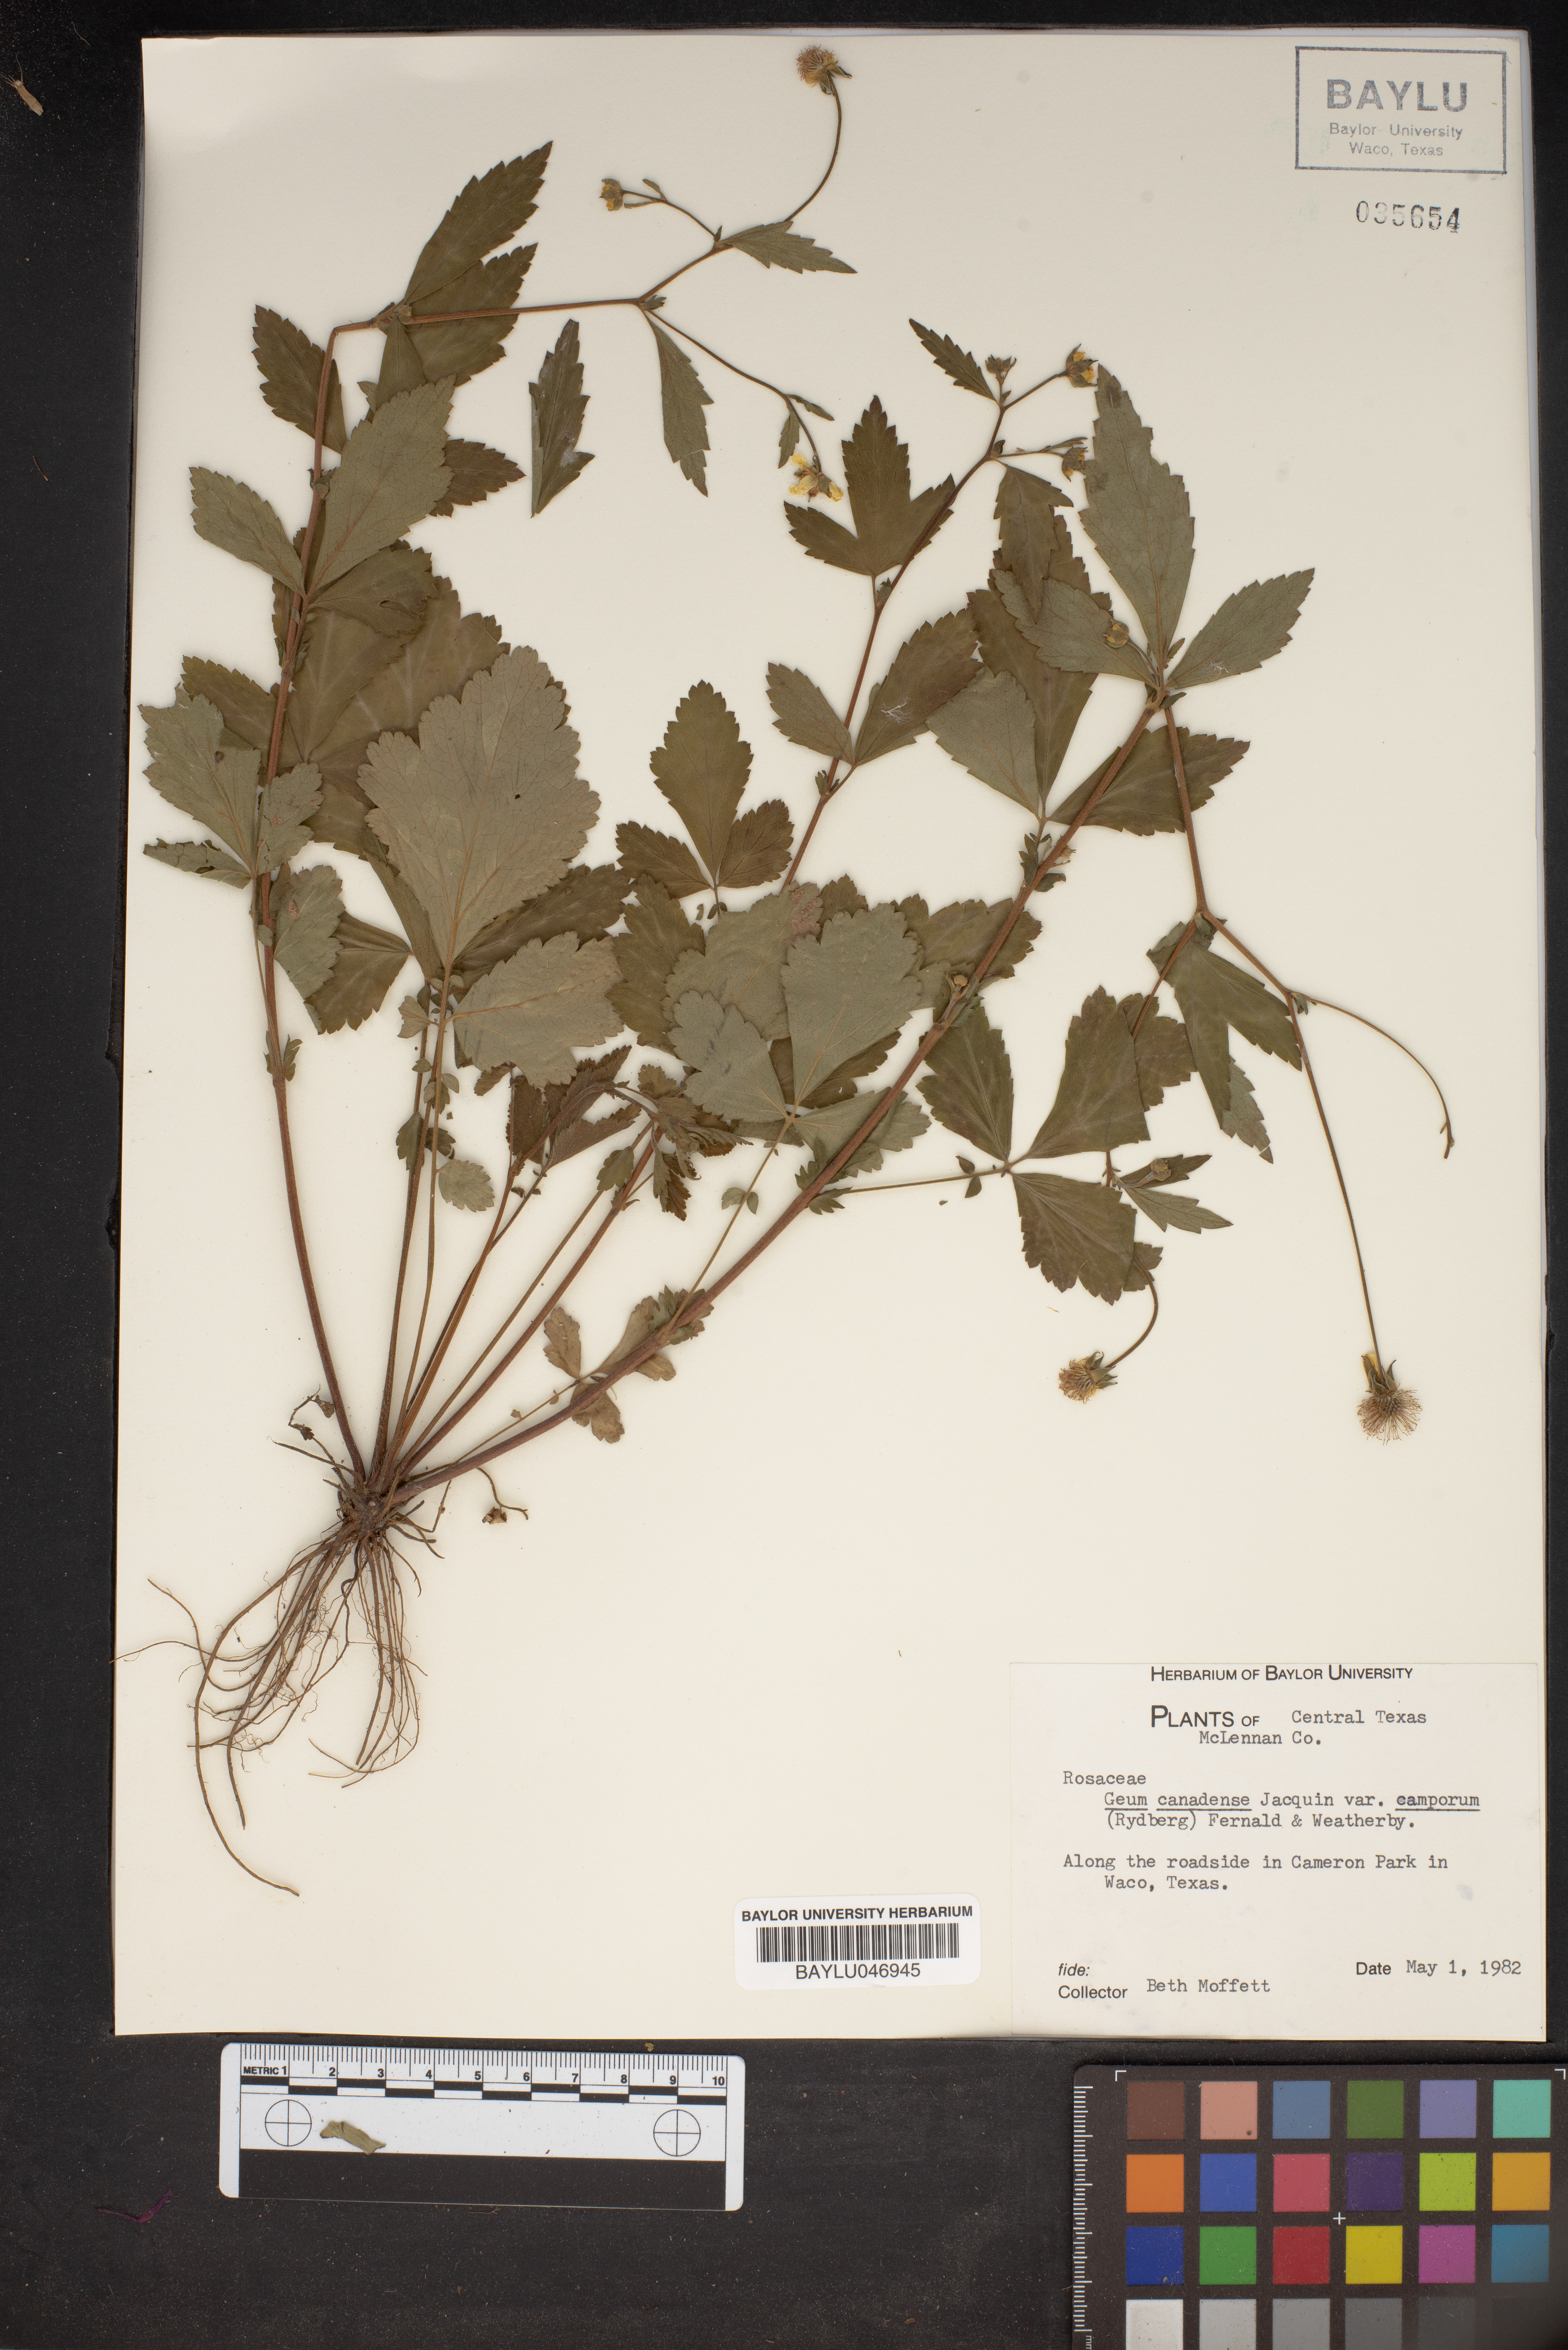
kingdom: Plantae
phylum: Tracheophyta
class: Magnoliopsida
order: Rosales
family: Rosaceae
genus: Geum
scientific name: Geum canadense
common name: White avens
